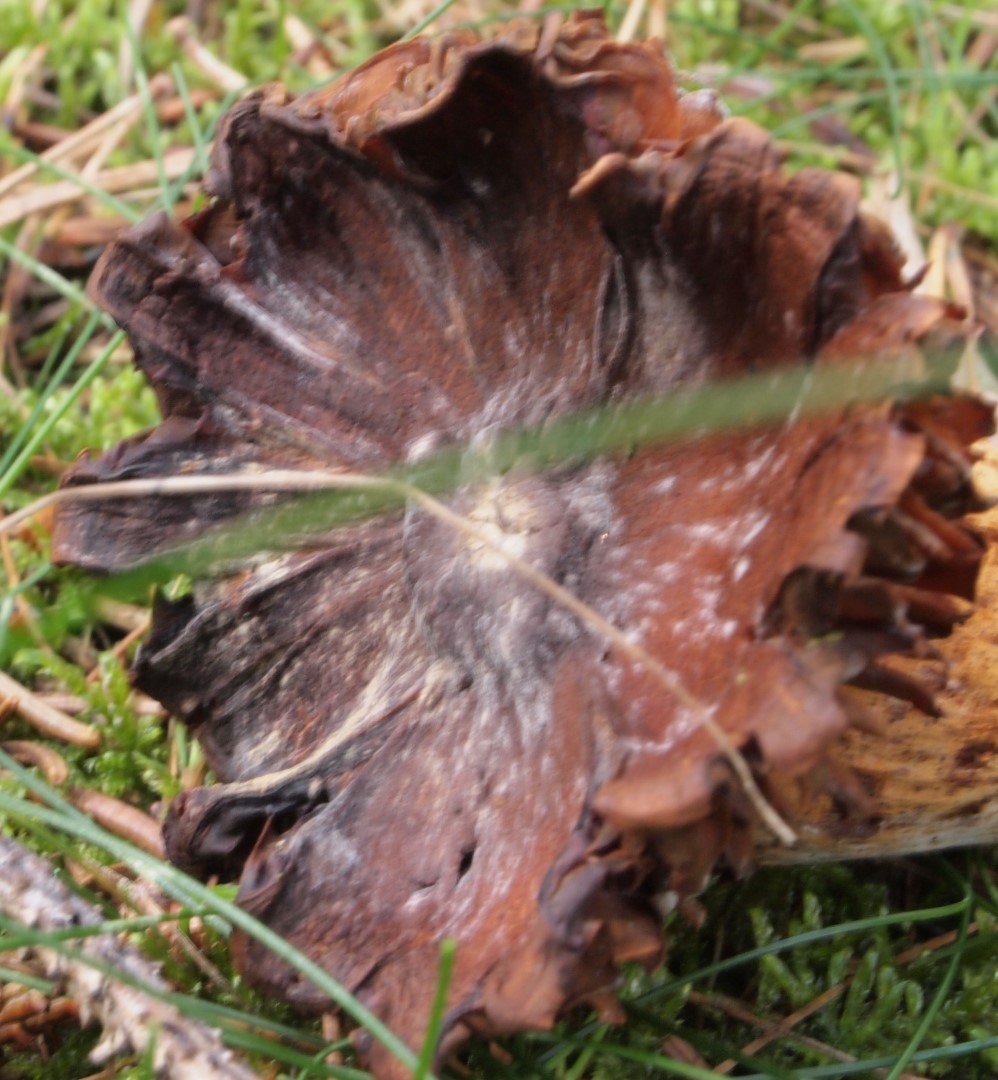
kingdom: Fungi
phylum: Basidiomycota
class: Agaricomycetes
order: Agaricales
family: Cortinariaceae
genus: Cortinarius
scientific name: Cortinarius rubellus
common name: puklet gift-slørhat
